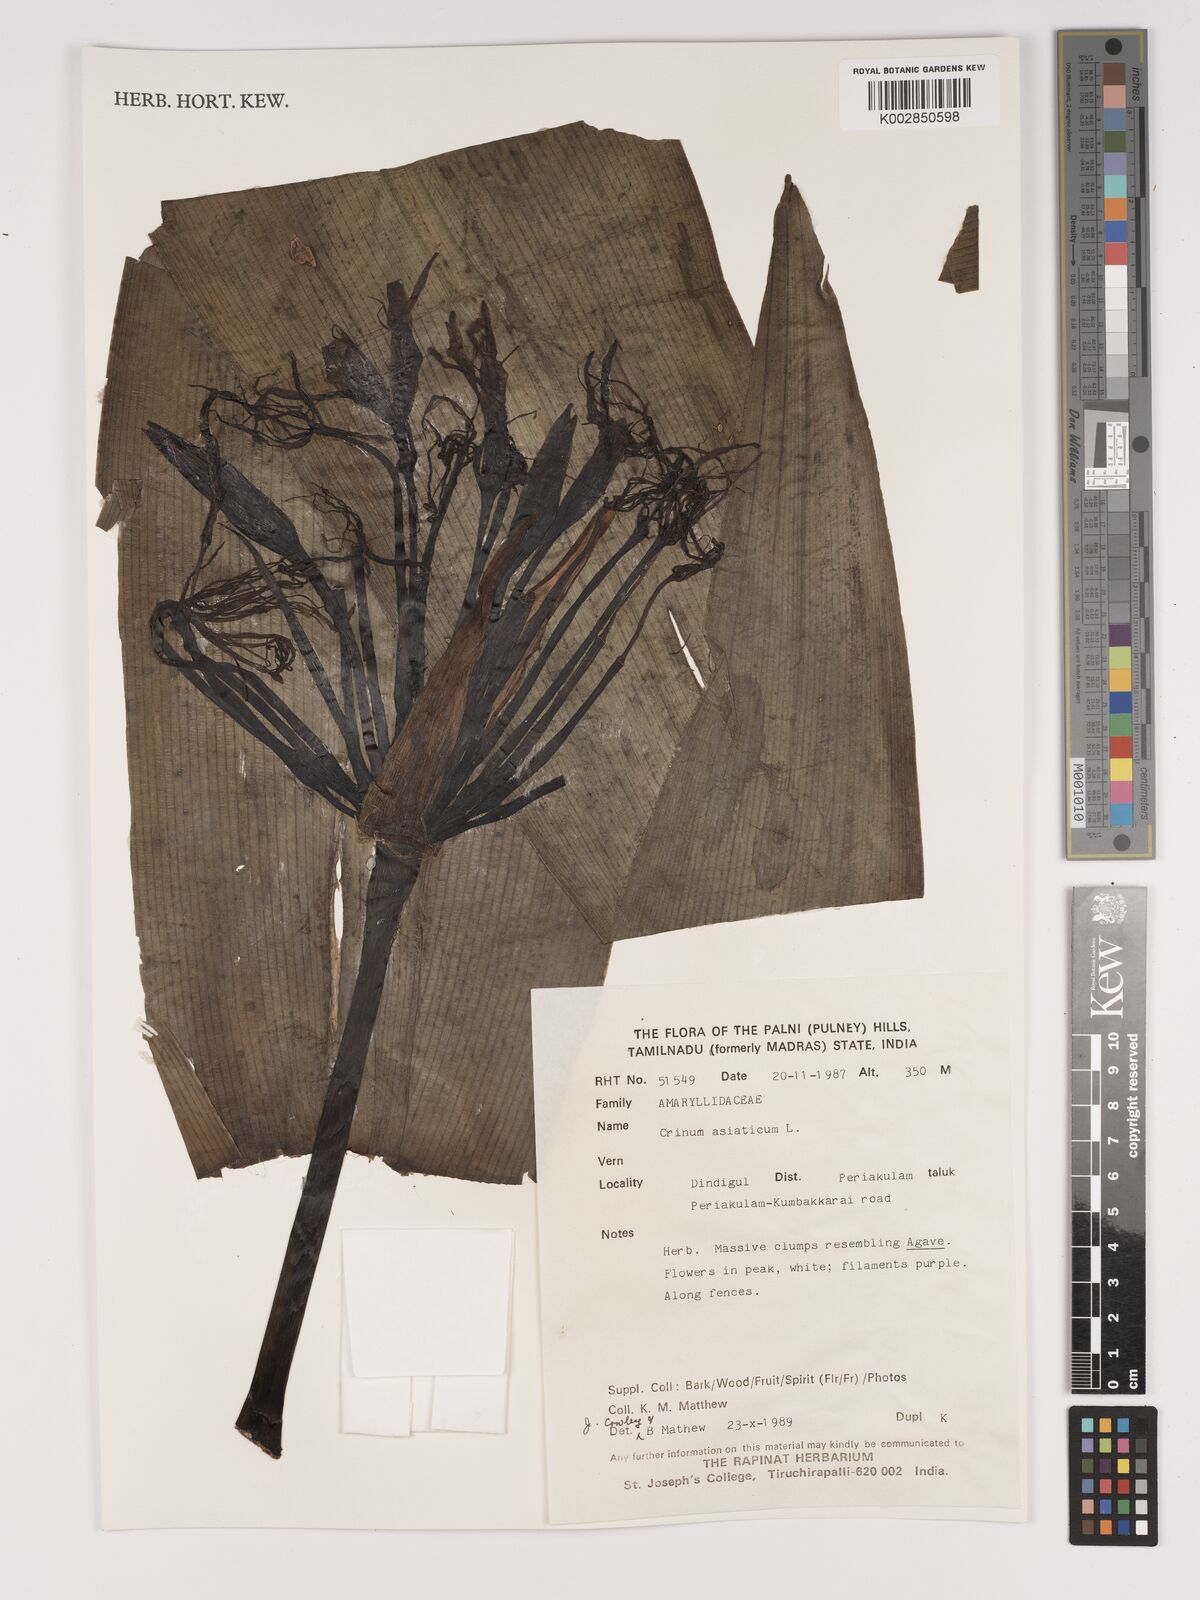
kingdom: Plantae
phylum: Tracheophyta
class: Liliopsida
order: Asparagales
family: Amaryllidaceae
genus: Crinum
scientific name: Crinum asiaticum
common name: Poisonbulb
